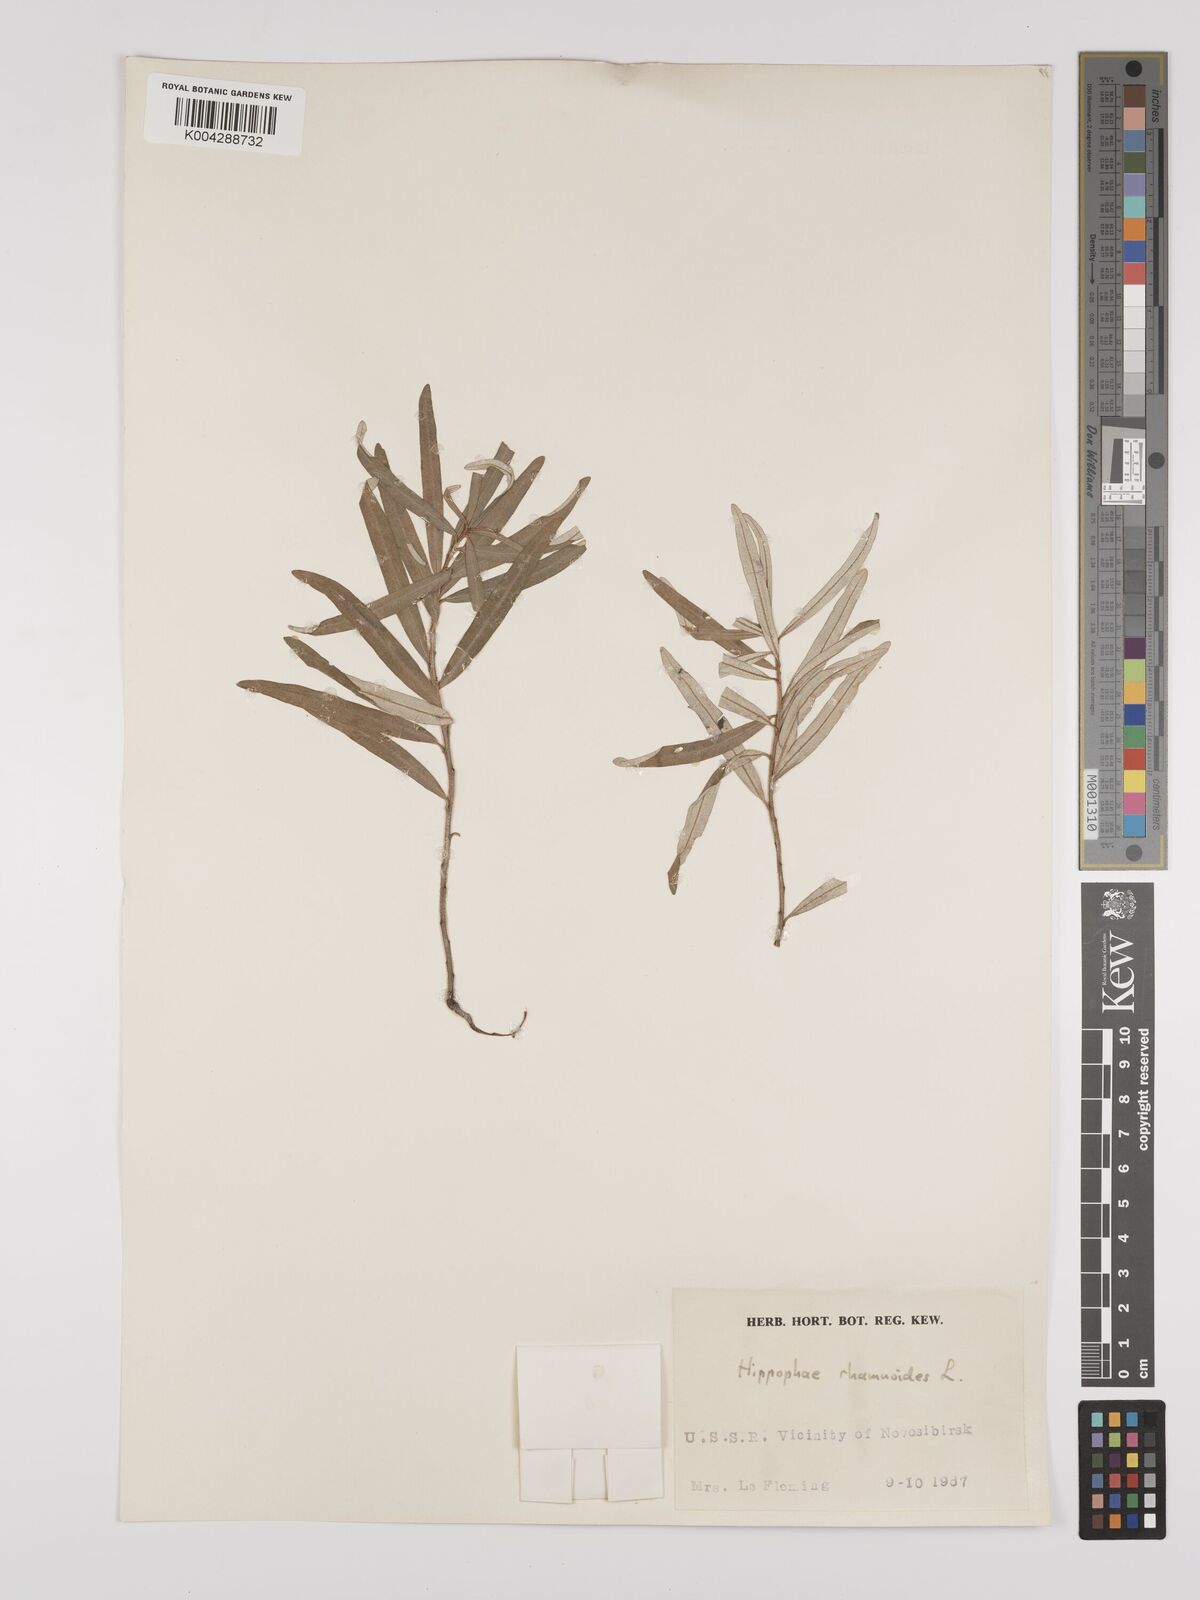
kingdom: Plantae
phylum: Tracheophyta
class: Magnoliopsida
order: Rosales
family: Elaeagnaceae
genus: Hippophae
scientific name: Hippophae rhamnoides
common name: Sea-buckthorn
